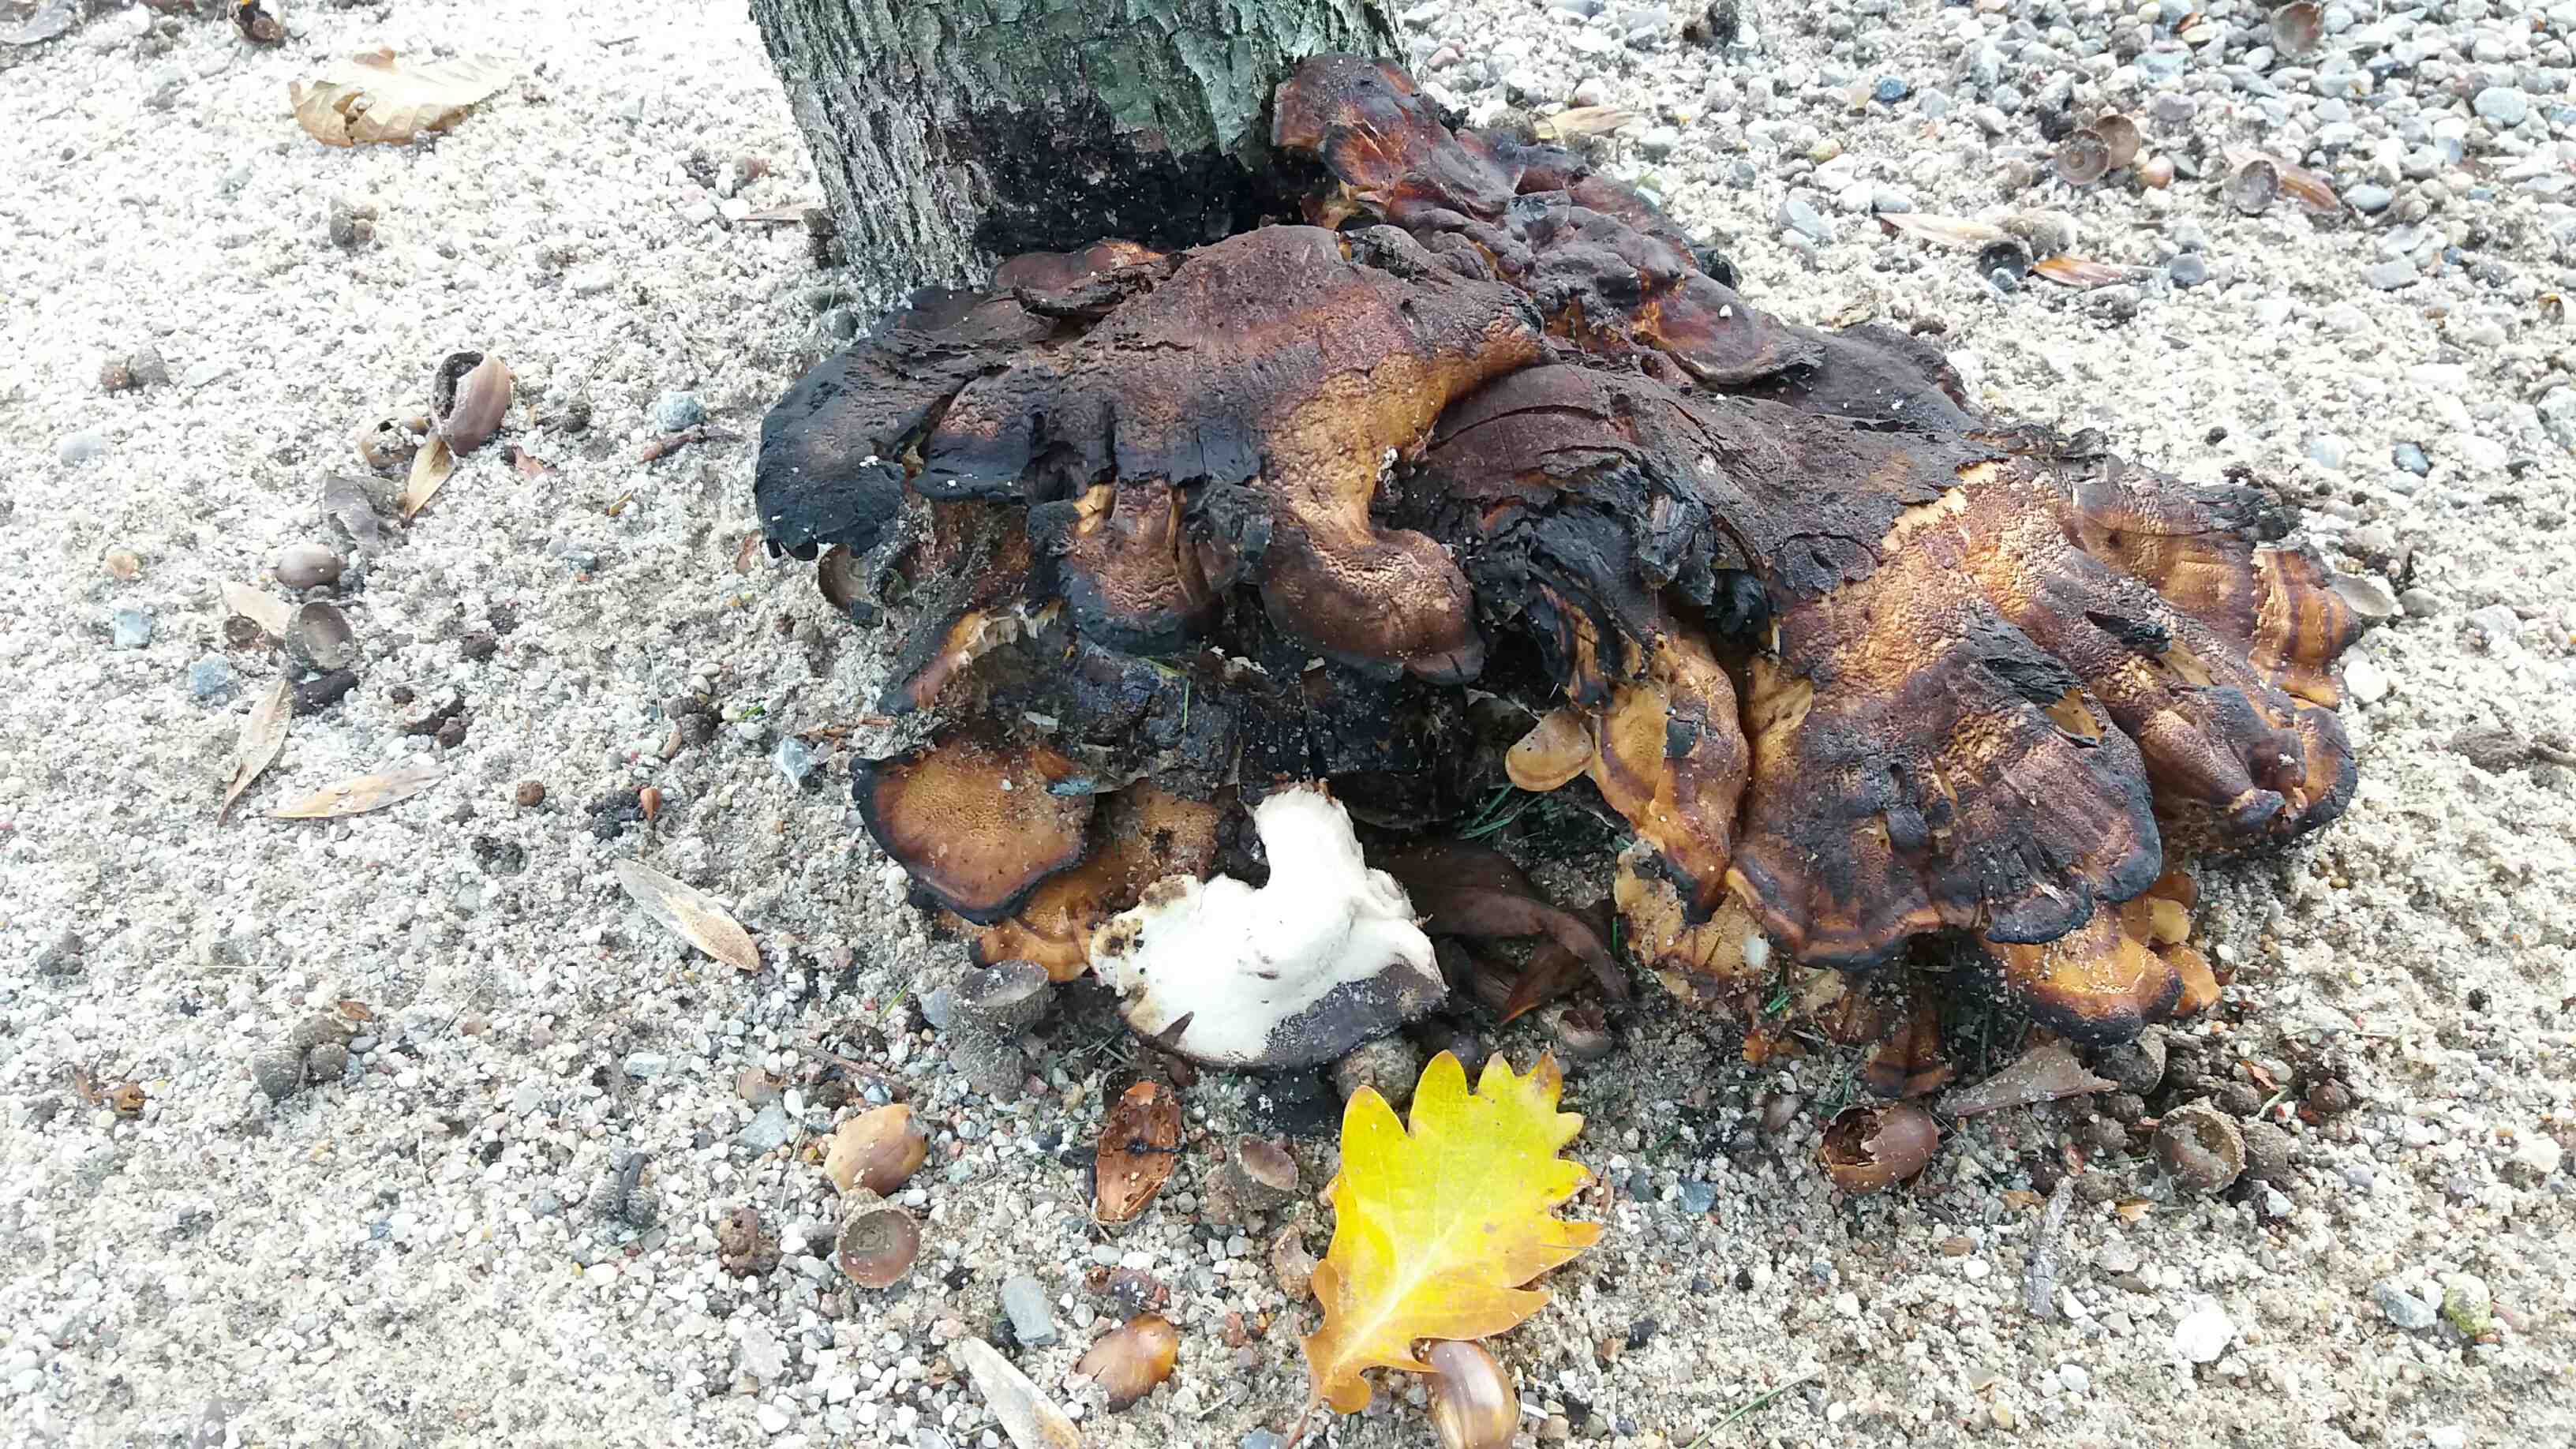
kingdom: Fungi
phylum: Basidiomycota
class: Agaricomycetes
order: Polyporales
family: Meripilaceae
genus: Meripilus
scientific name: Meripilus giganteus
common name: kæmpeporesvamp
